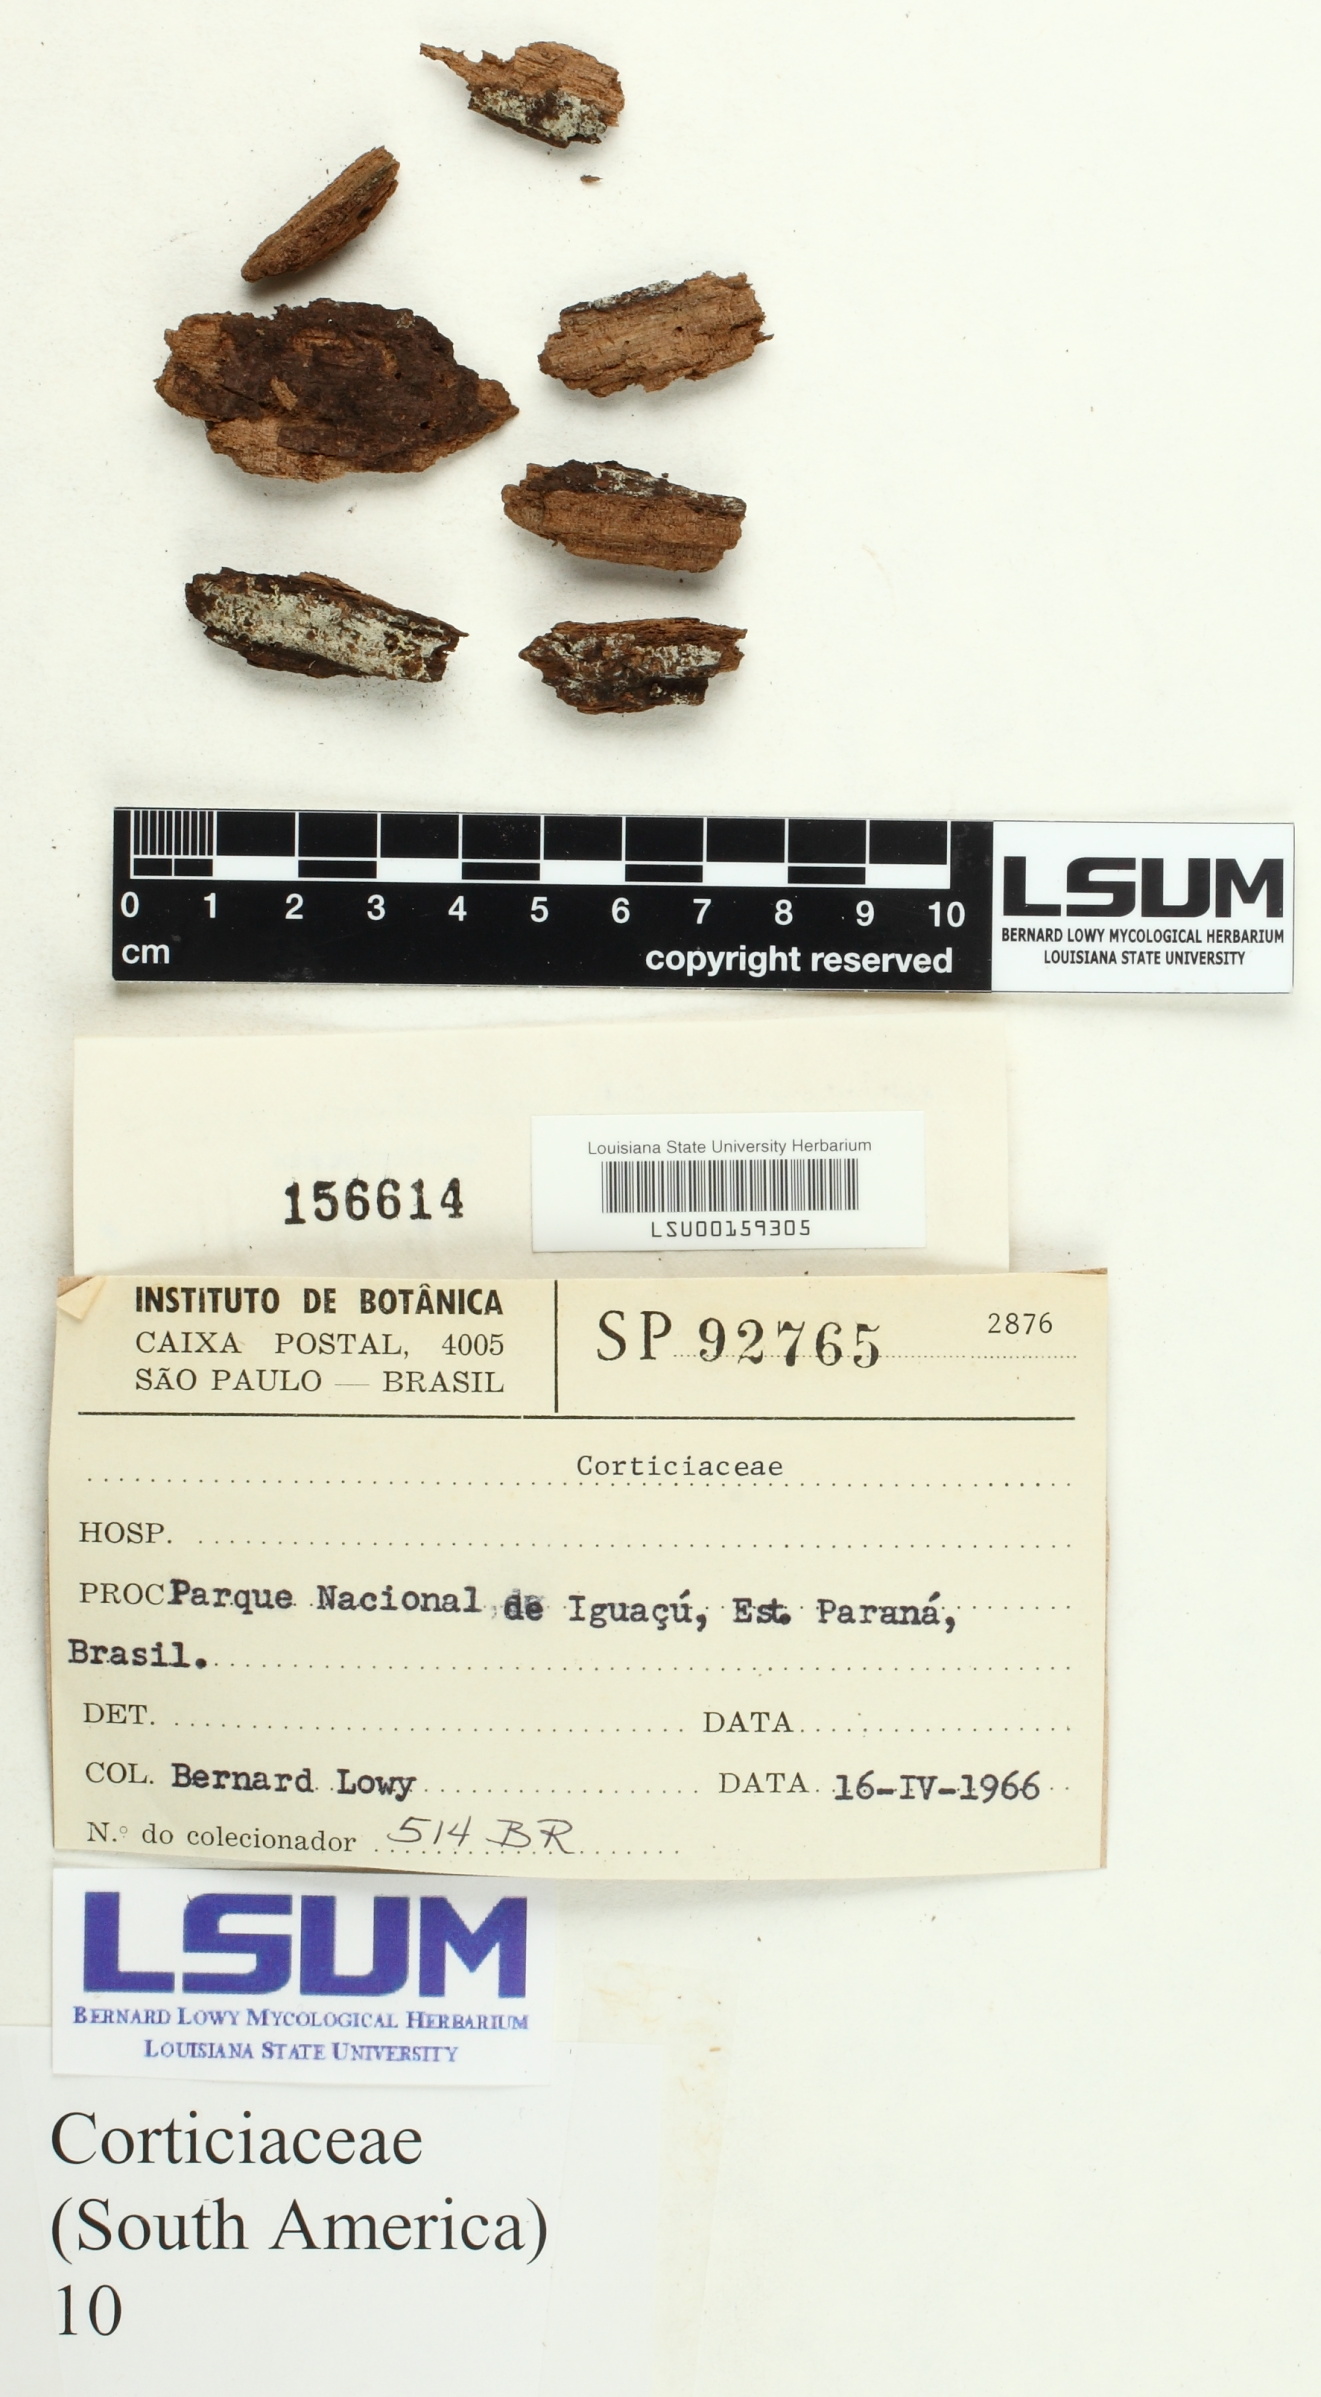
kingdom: Fungi
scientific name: Fungi
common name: Fungi
